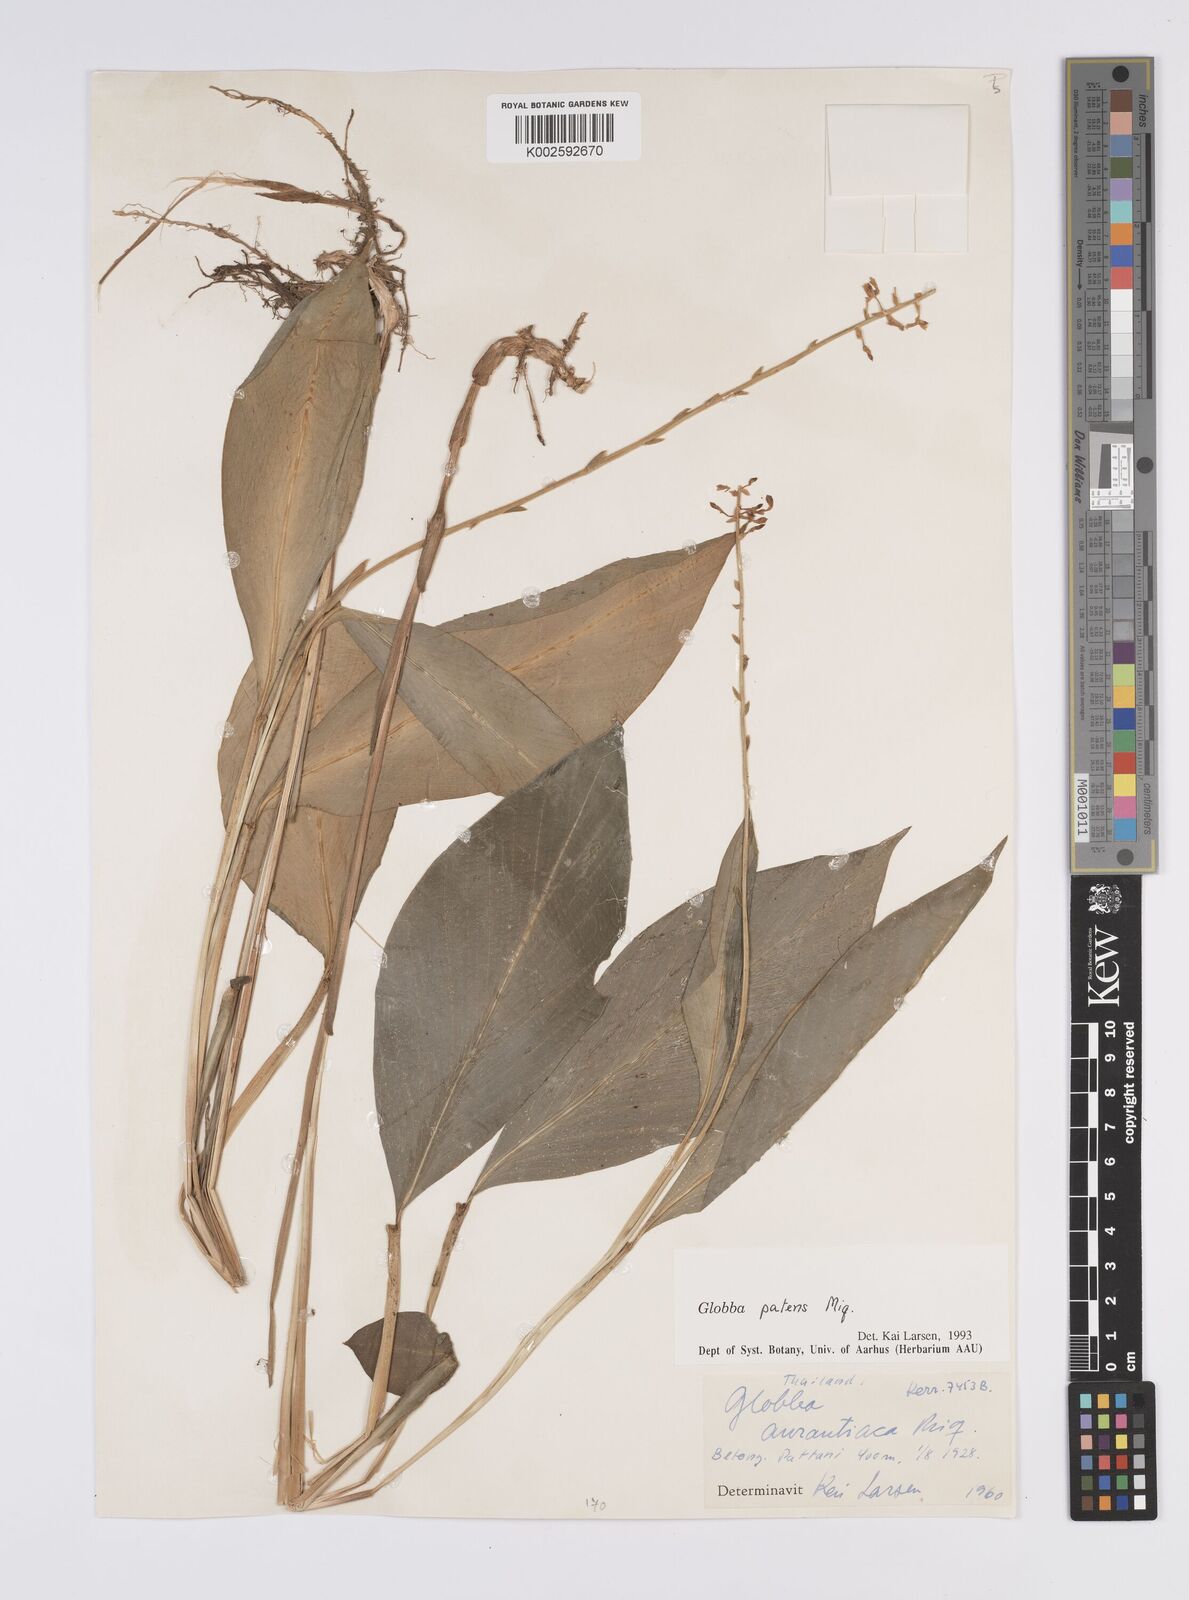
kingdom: Plantae
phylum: Tracheophyta
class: Liliopsida
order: Zingiberales
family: Zingiberaceae
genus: Globba
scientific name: Globba patens
